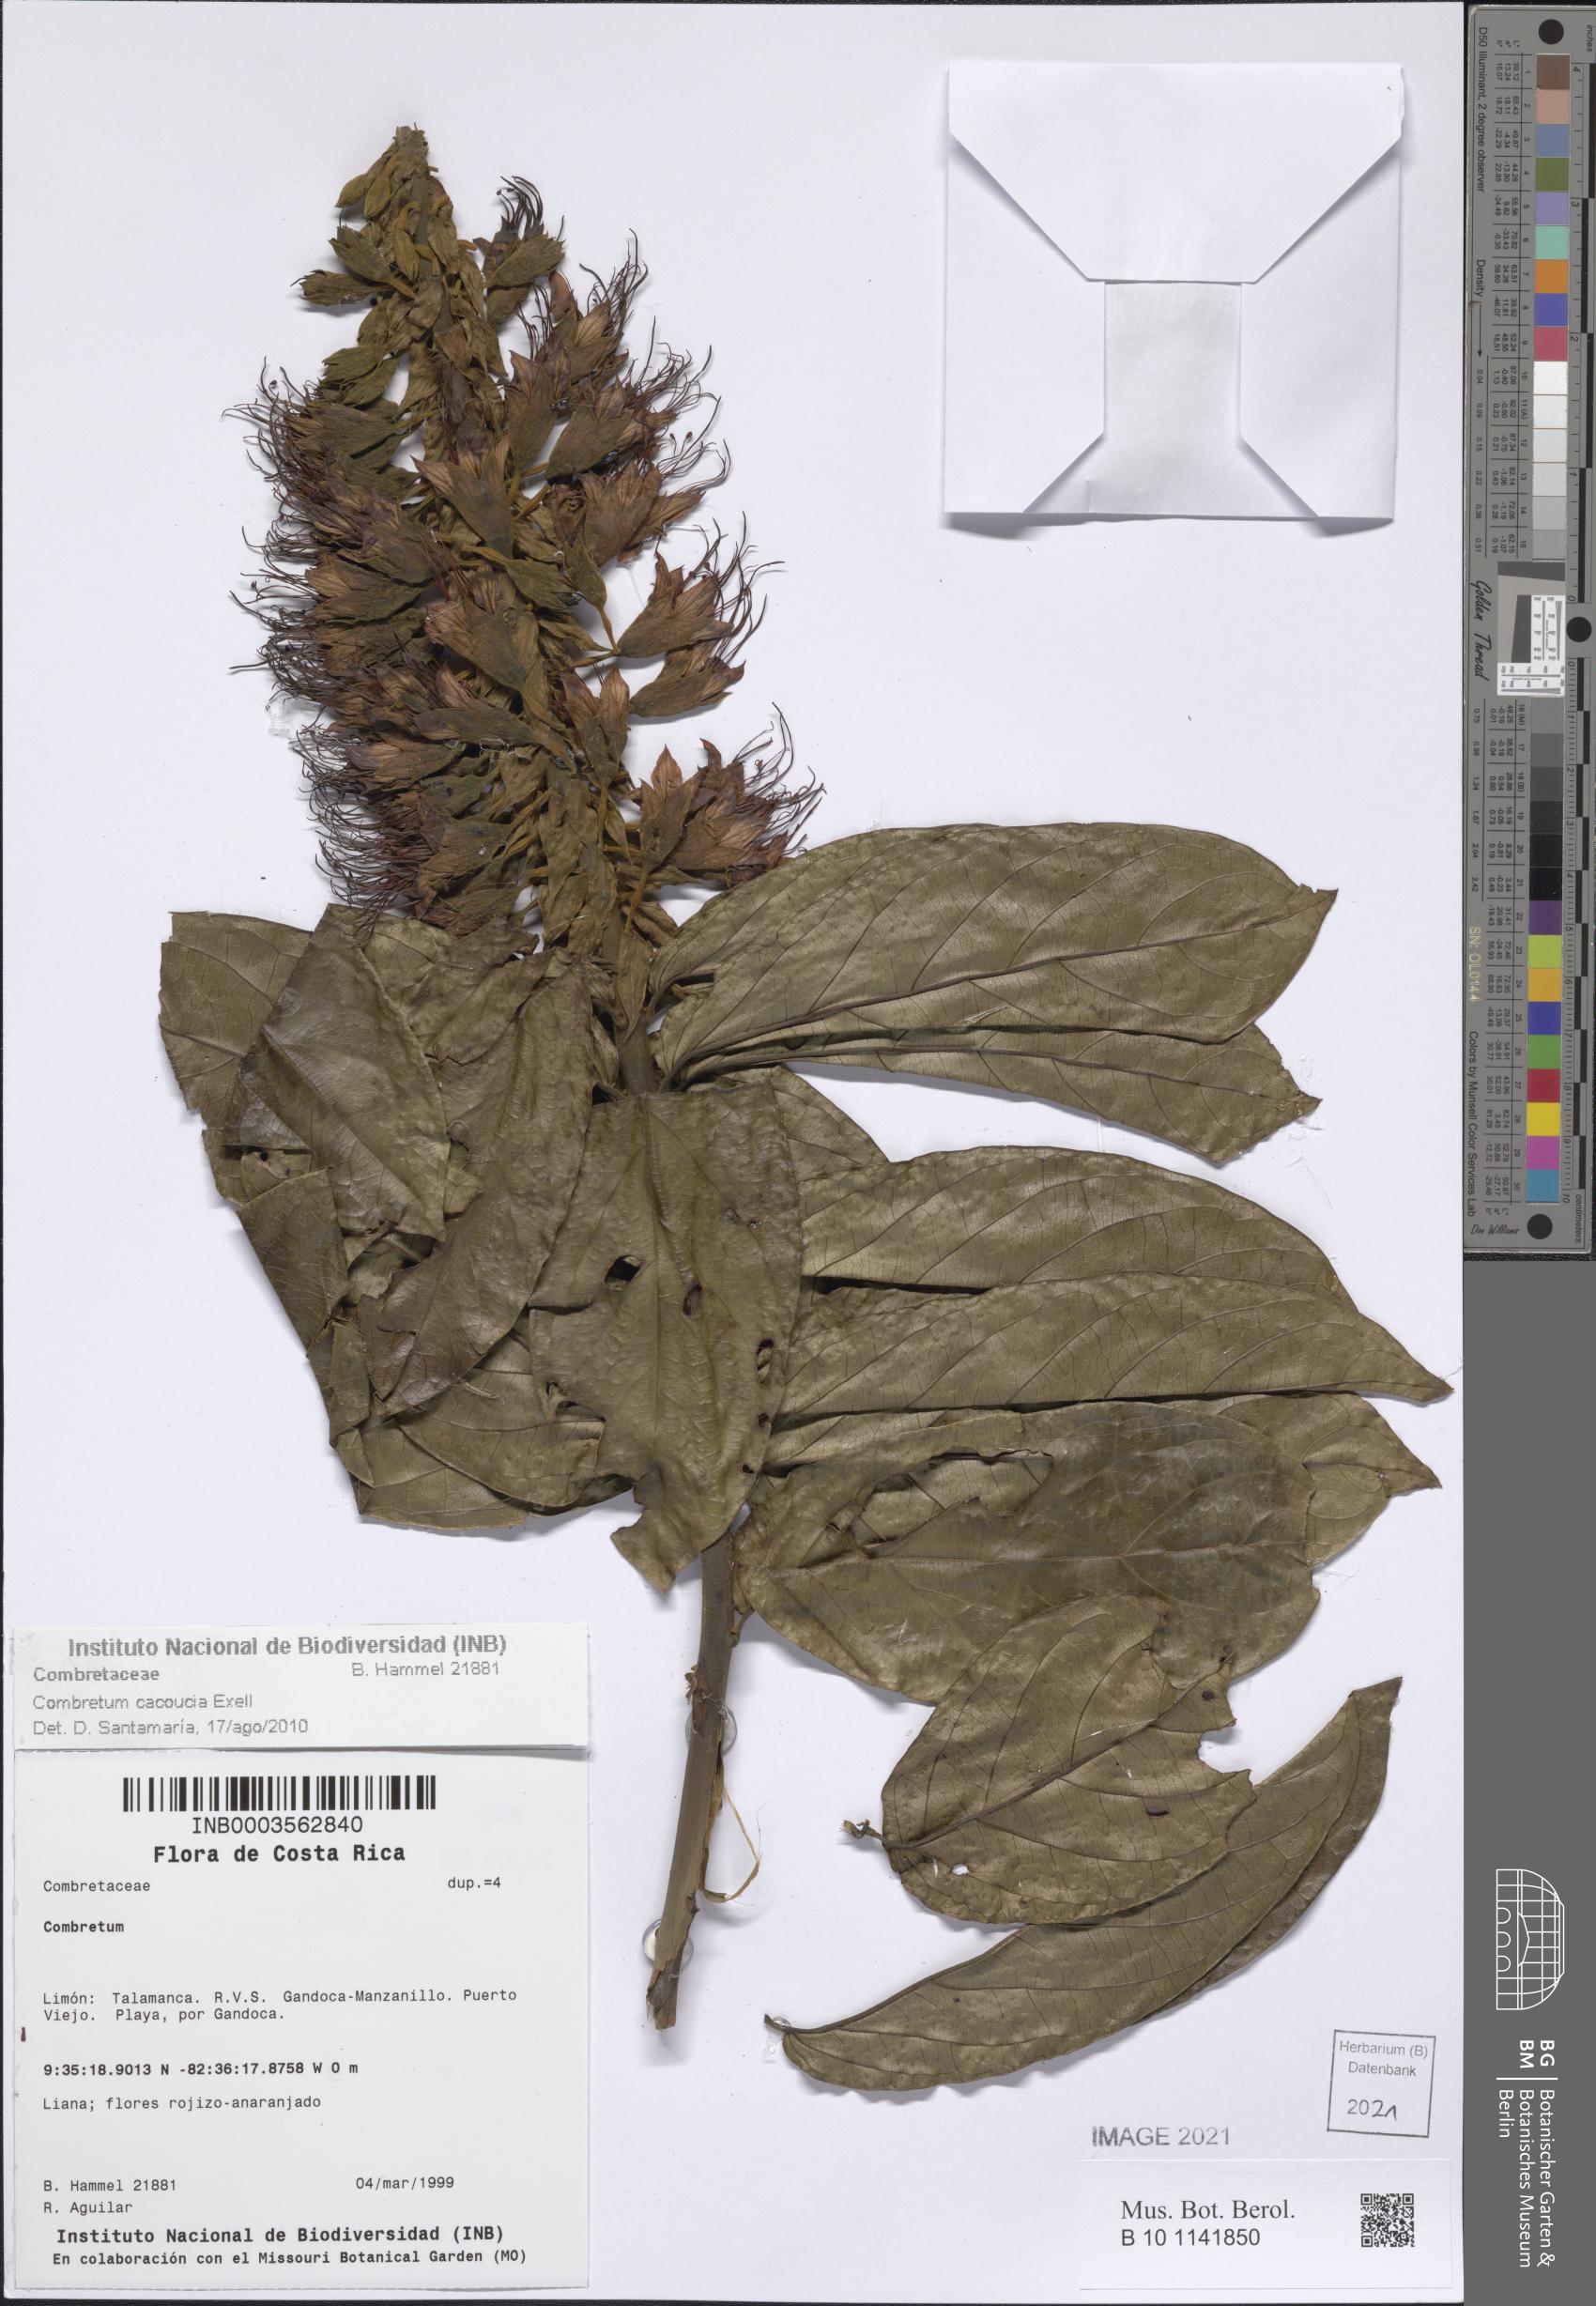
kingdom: Plantae
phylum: Tracheophyta
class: Magnoliopsida
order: Myrtales
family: Combretaceae
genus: Combretum
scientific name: Combretum cacoucia
